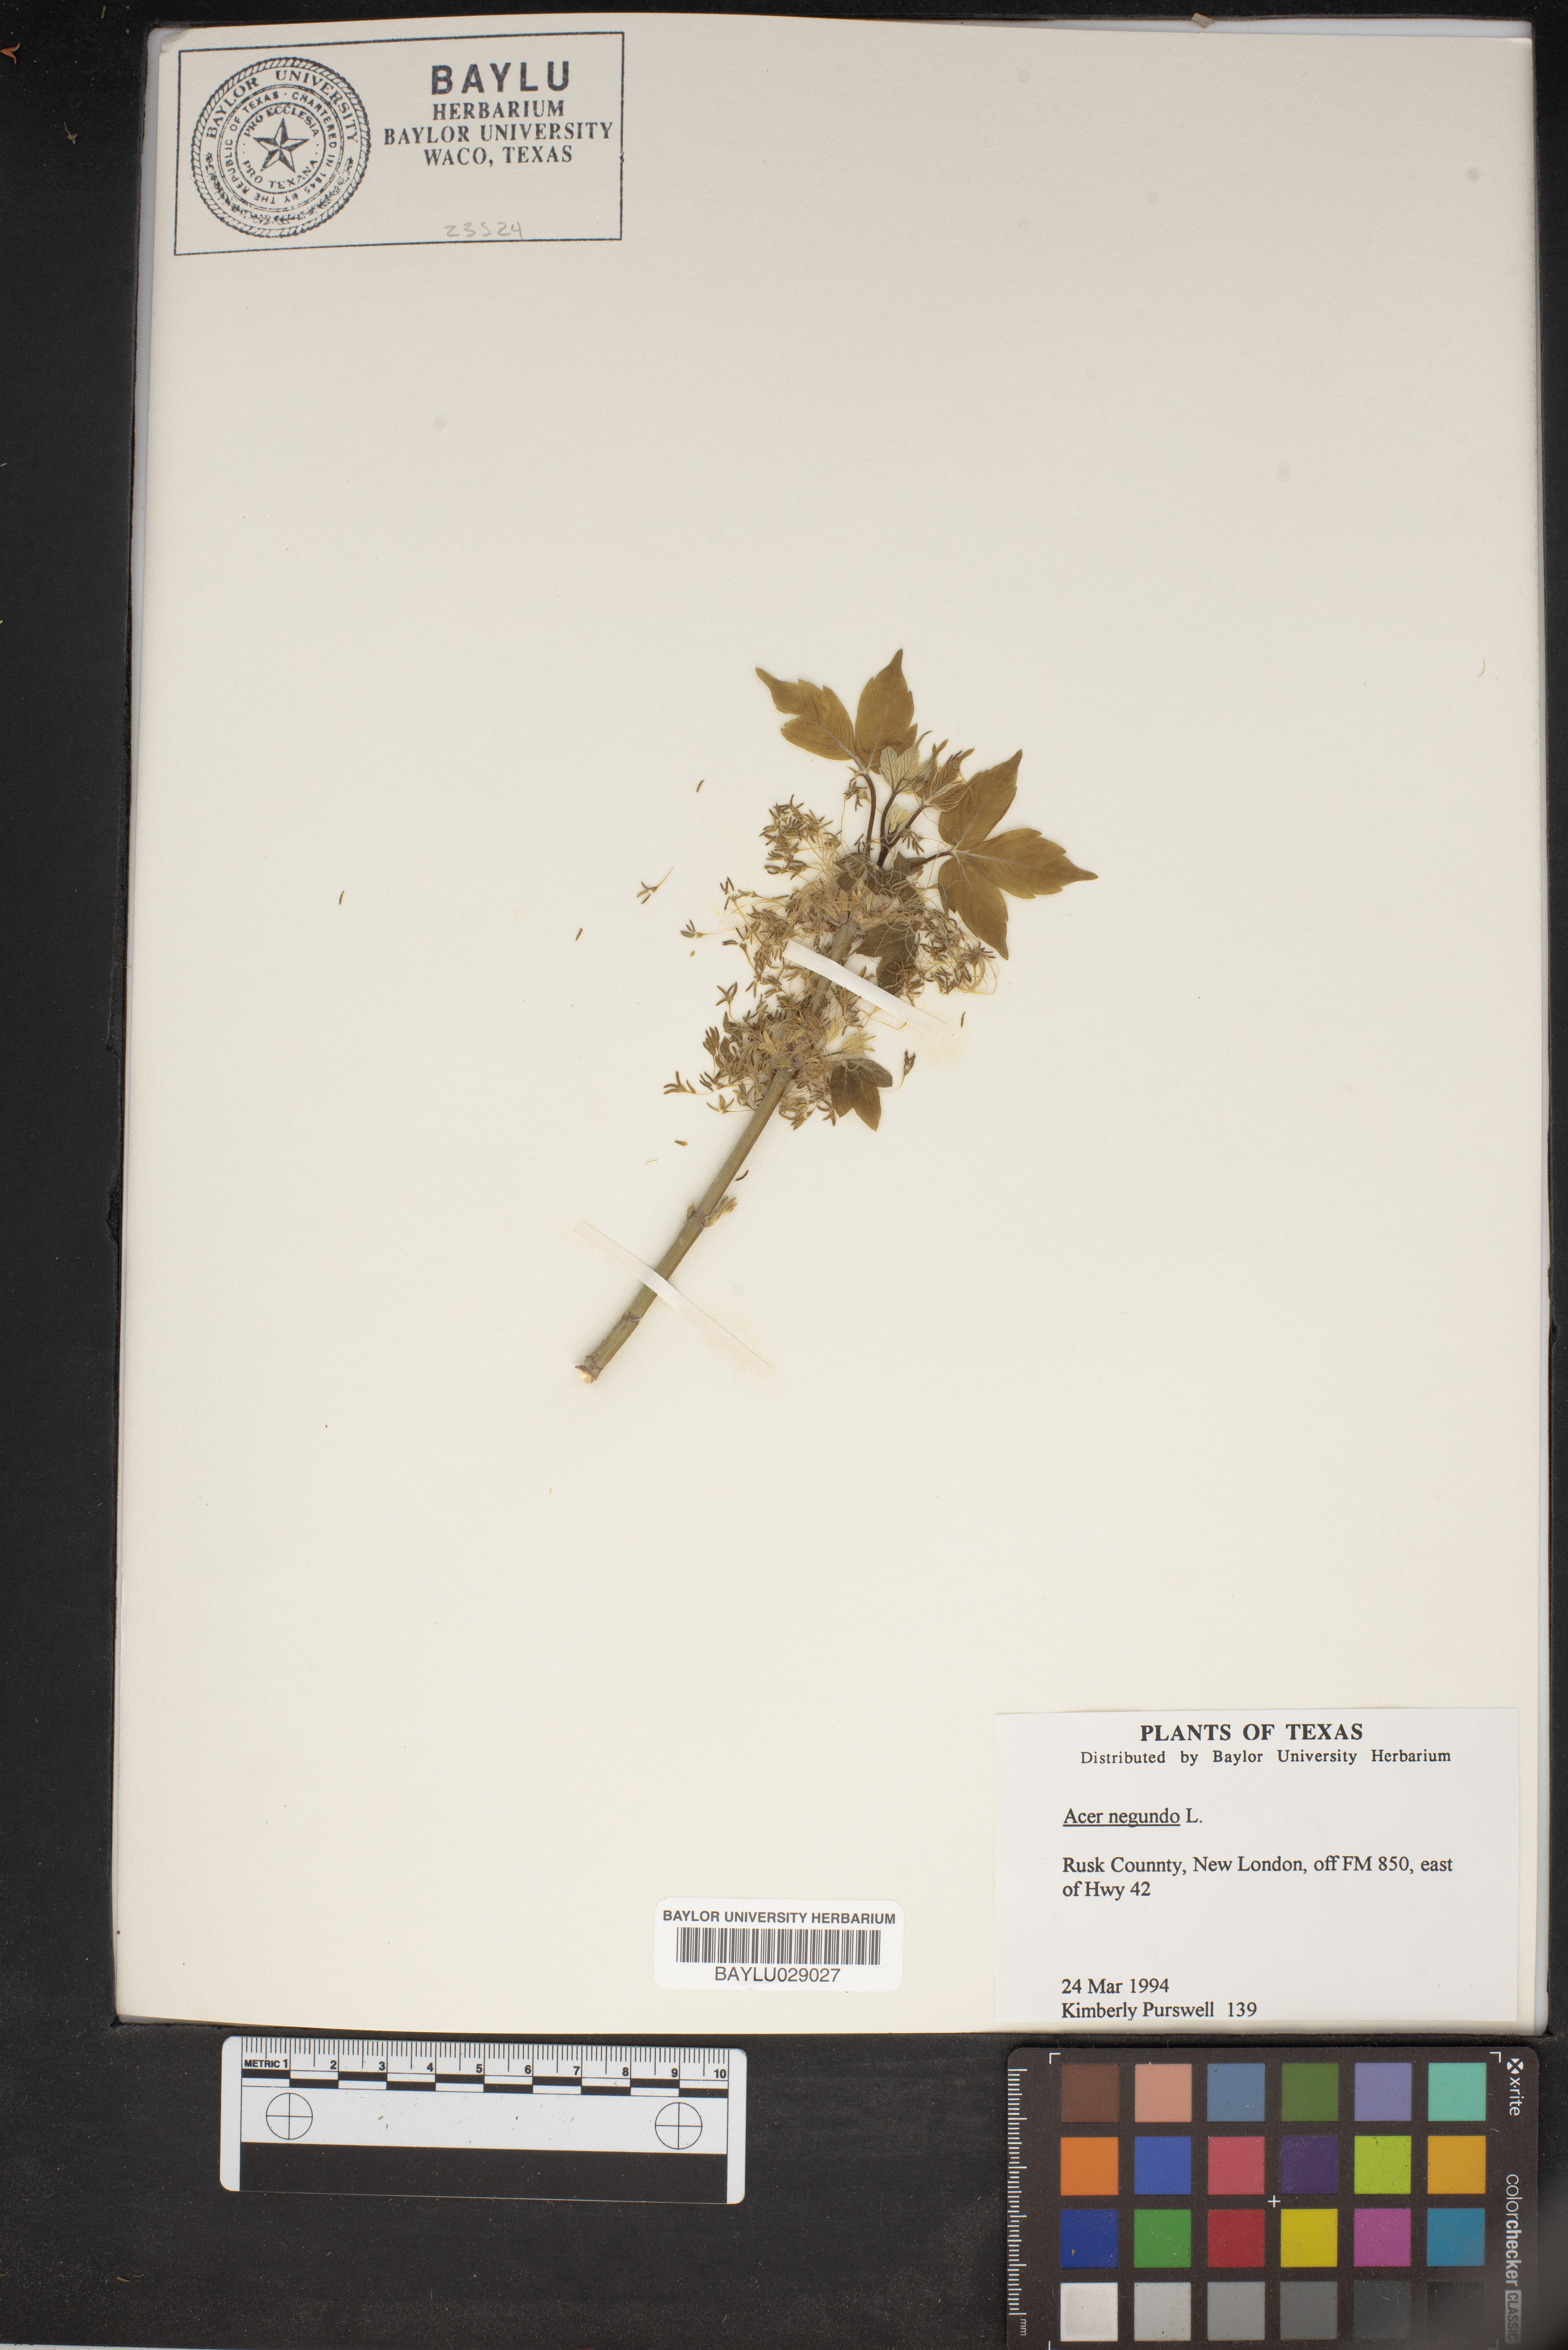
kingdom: Plantae
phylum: Tracheophyta
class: Magnoliopsida
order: Sapindales
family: Sapindaceae
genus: Acer
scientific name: Acer negundo
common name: Ashleaf maple
